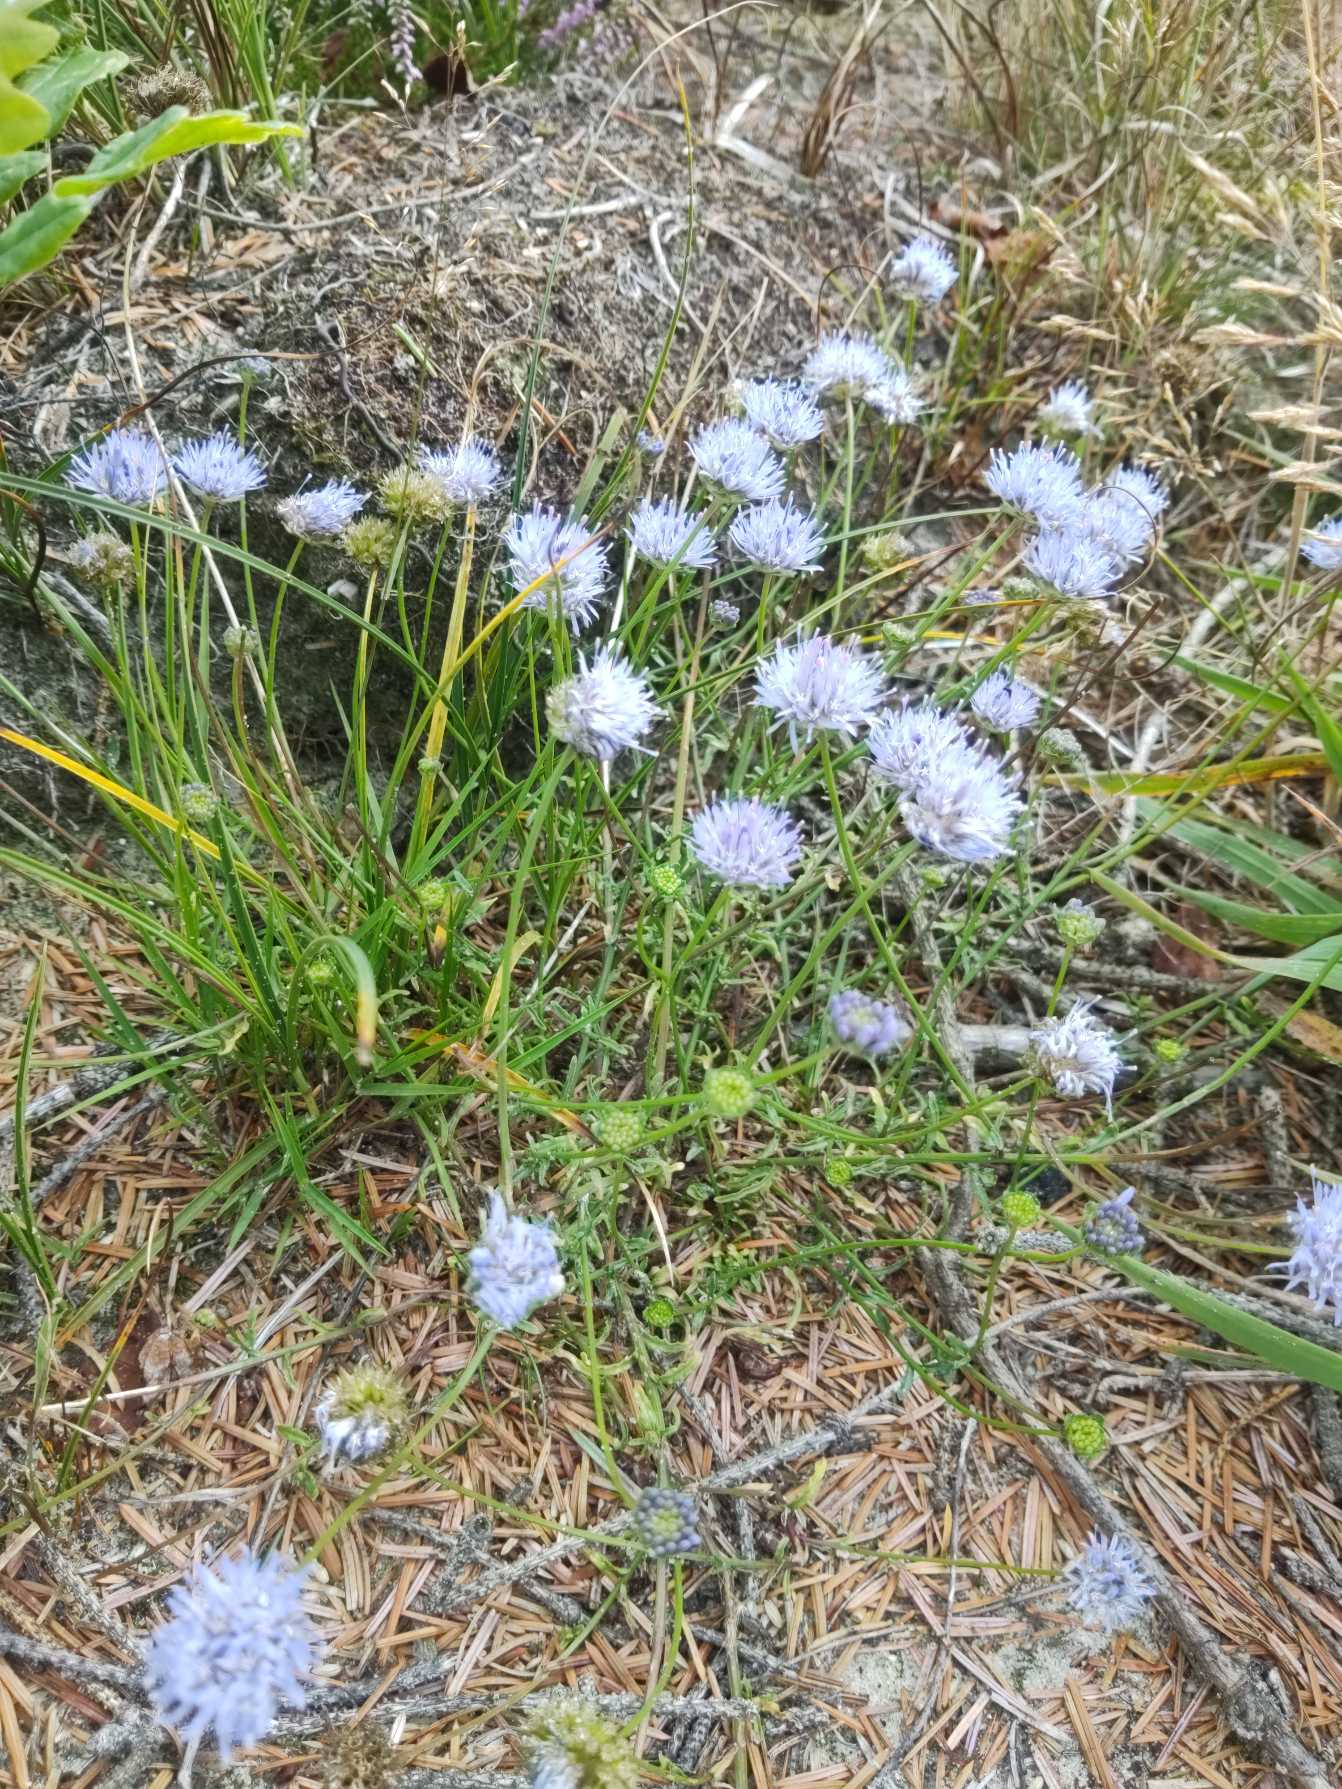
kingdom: Plantae
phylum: Tracheophyta
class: Magnoliopsida
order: Asterales
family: Campanulaceae
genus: Jasione
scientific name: Jasione montana
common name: Blåmunke
